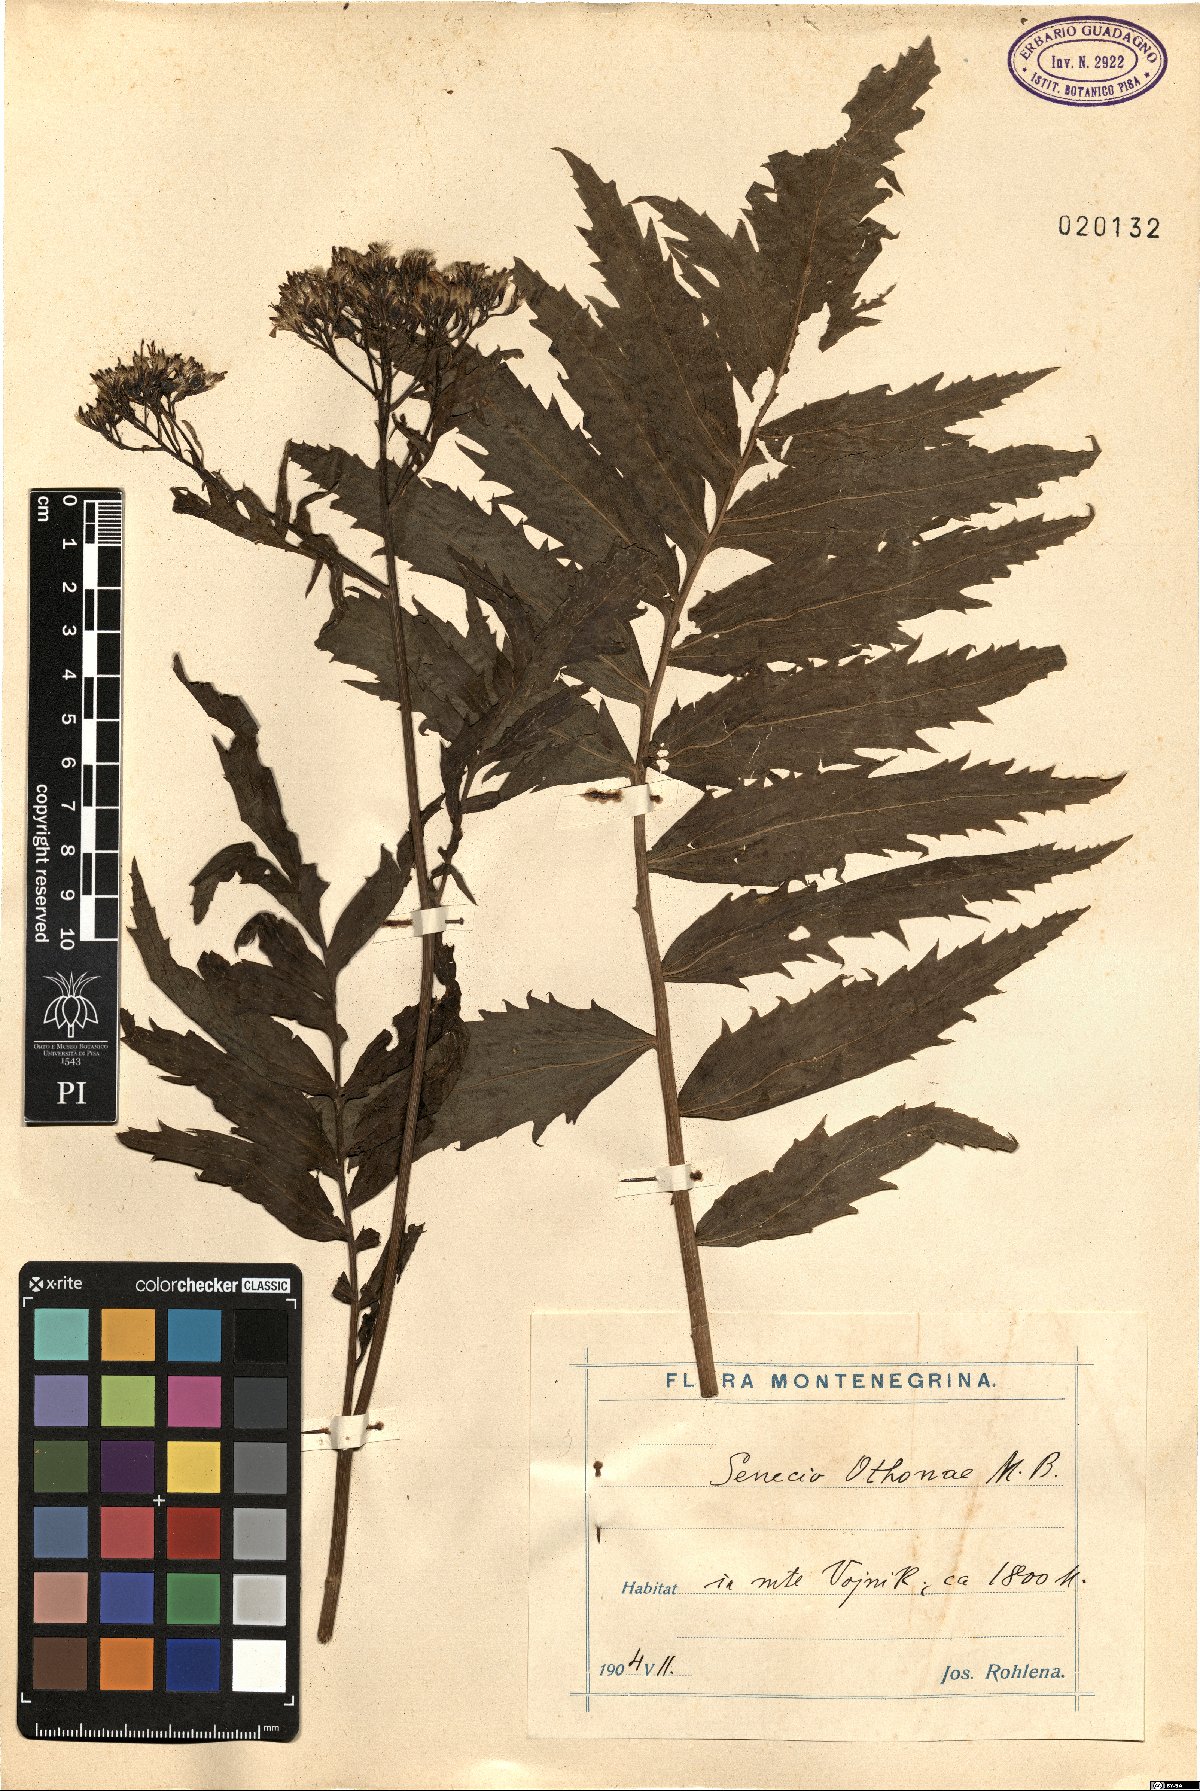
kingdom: Plantae
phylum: Tracheophyta
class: Magnoliopsida
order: Asterales
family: Asteraceae
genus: Jacobaea
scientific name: Jacobaea othonnae
